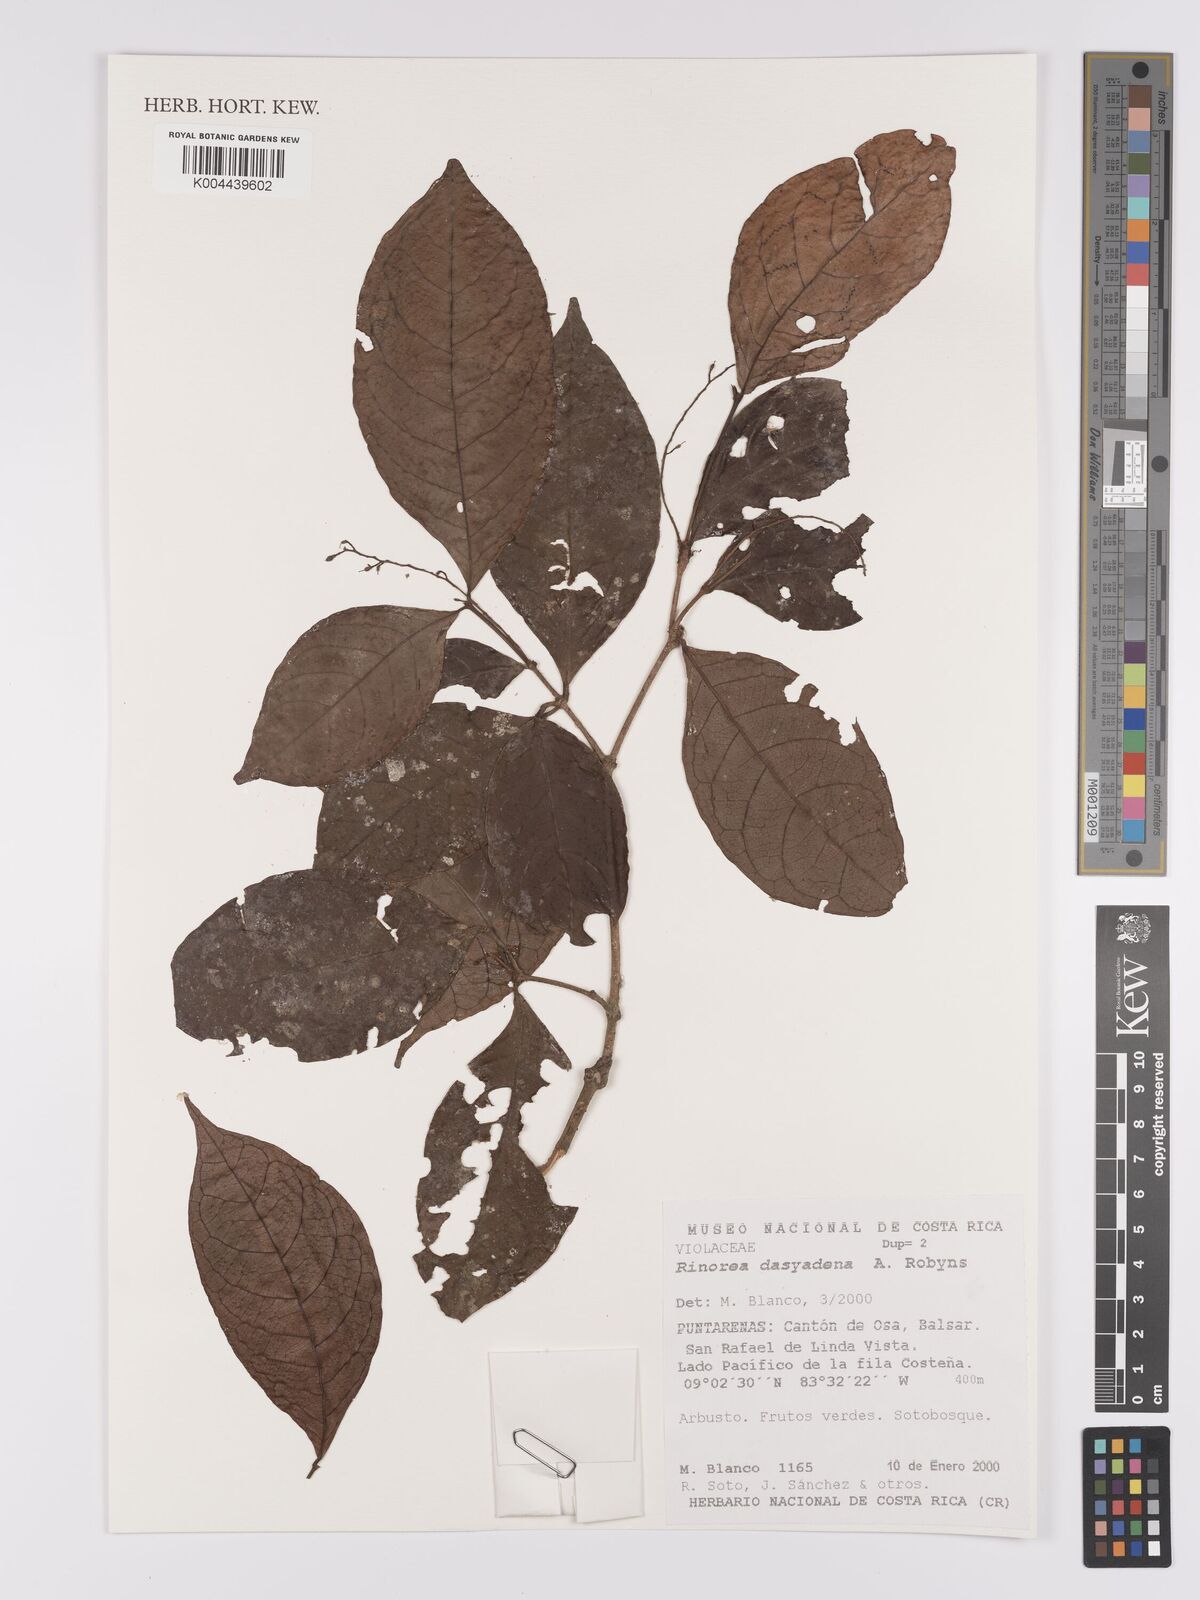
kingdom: Plantae
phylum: Tracheophyta
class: Magnoliopsida
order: Malpighiales
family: Violaceae
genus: Rinorea
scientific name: Rinorea dasyadena
